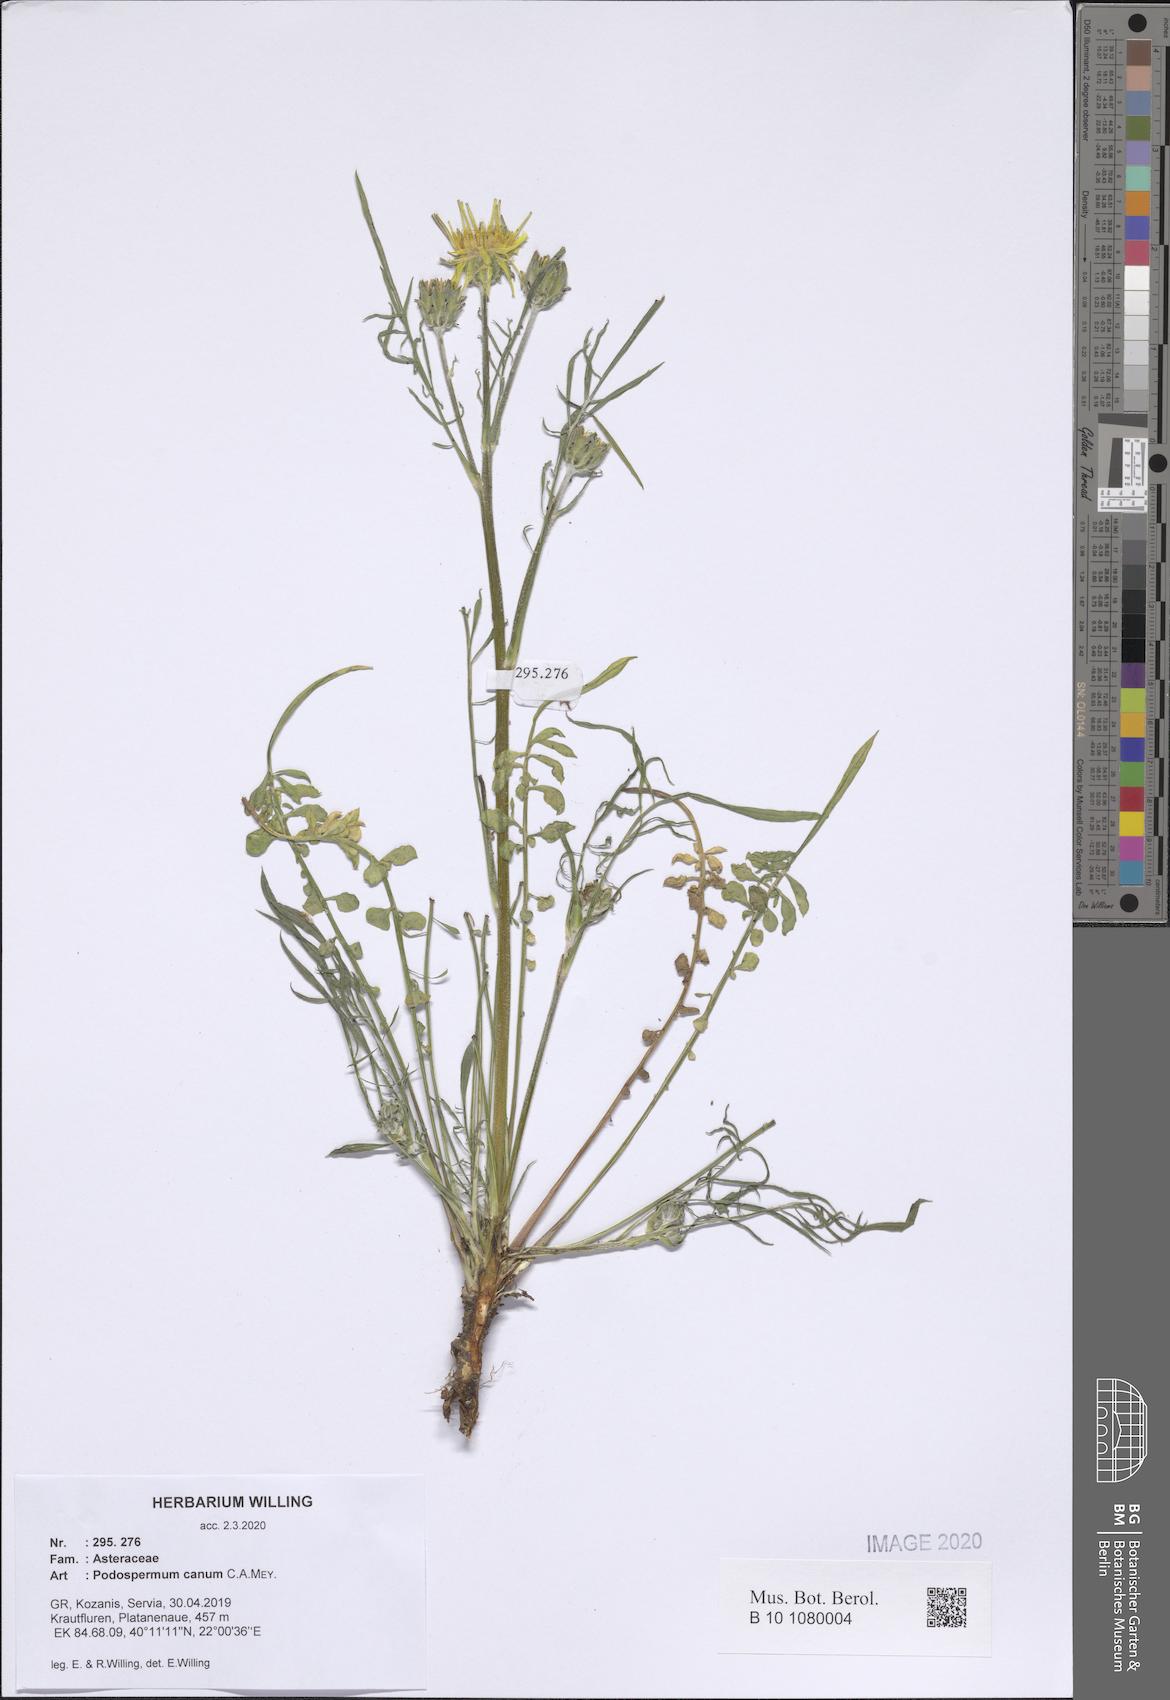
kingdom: Plantae
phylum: Tracheophyta
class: Magnoliopsida
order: Asterales
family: Asteraceae
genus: Scorzonera
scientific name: Scorzonera cana
